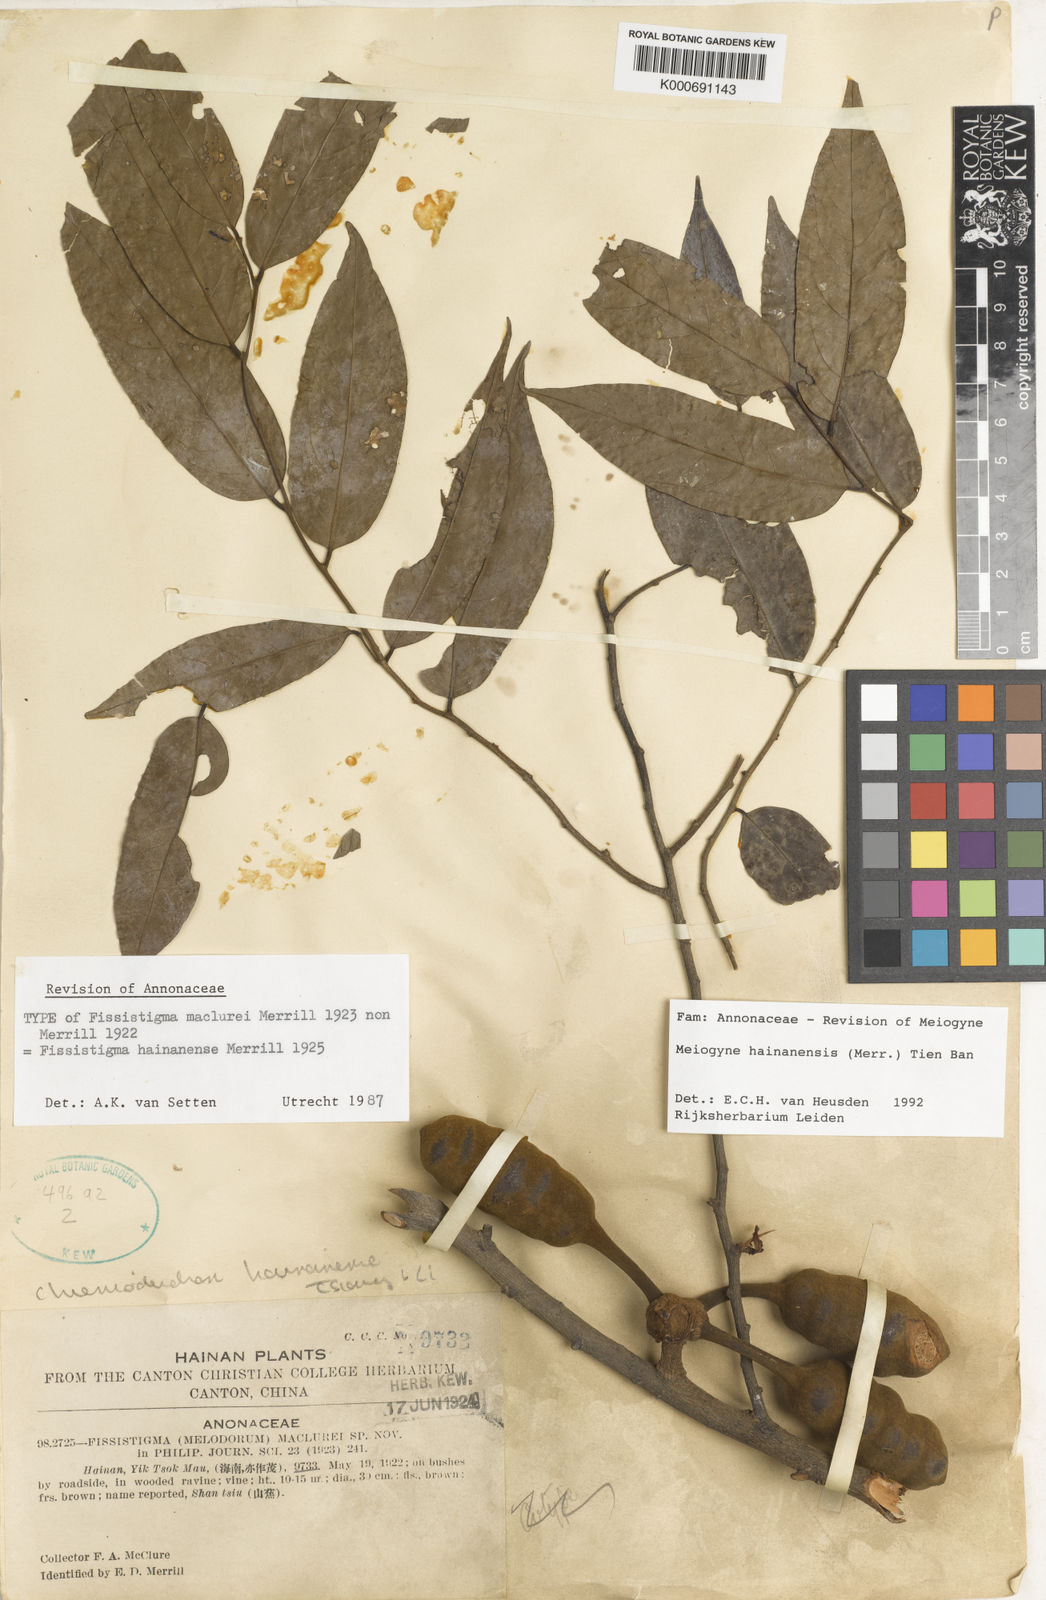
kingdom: Plantae
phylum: Tracheophyta
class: Magnoliopsida
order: Magnoliales
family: Annonaceae
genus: Meiogyne
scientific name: Meiogyne
